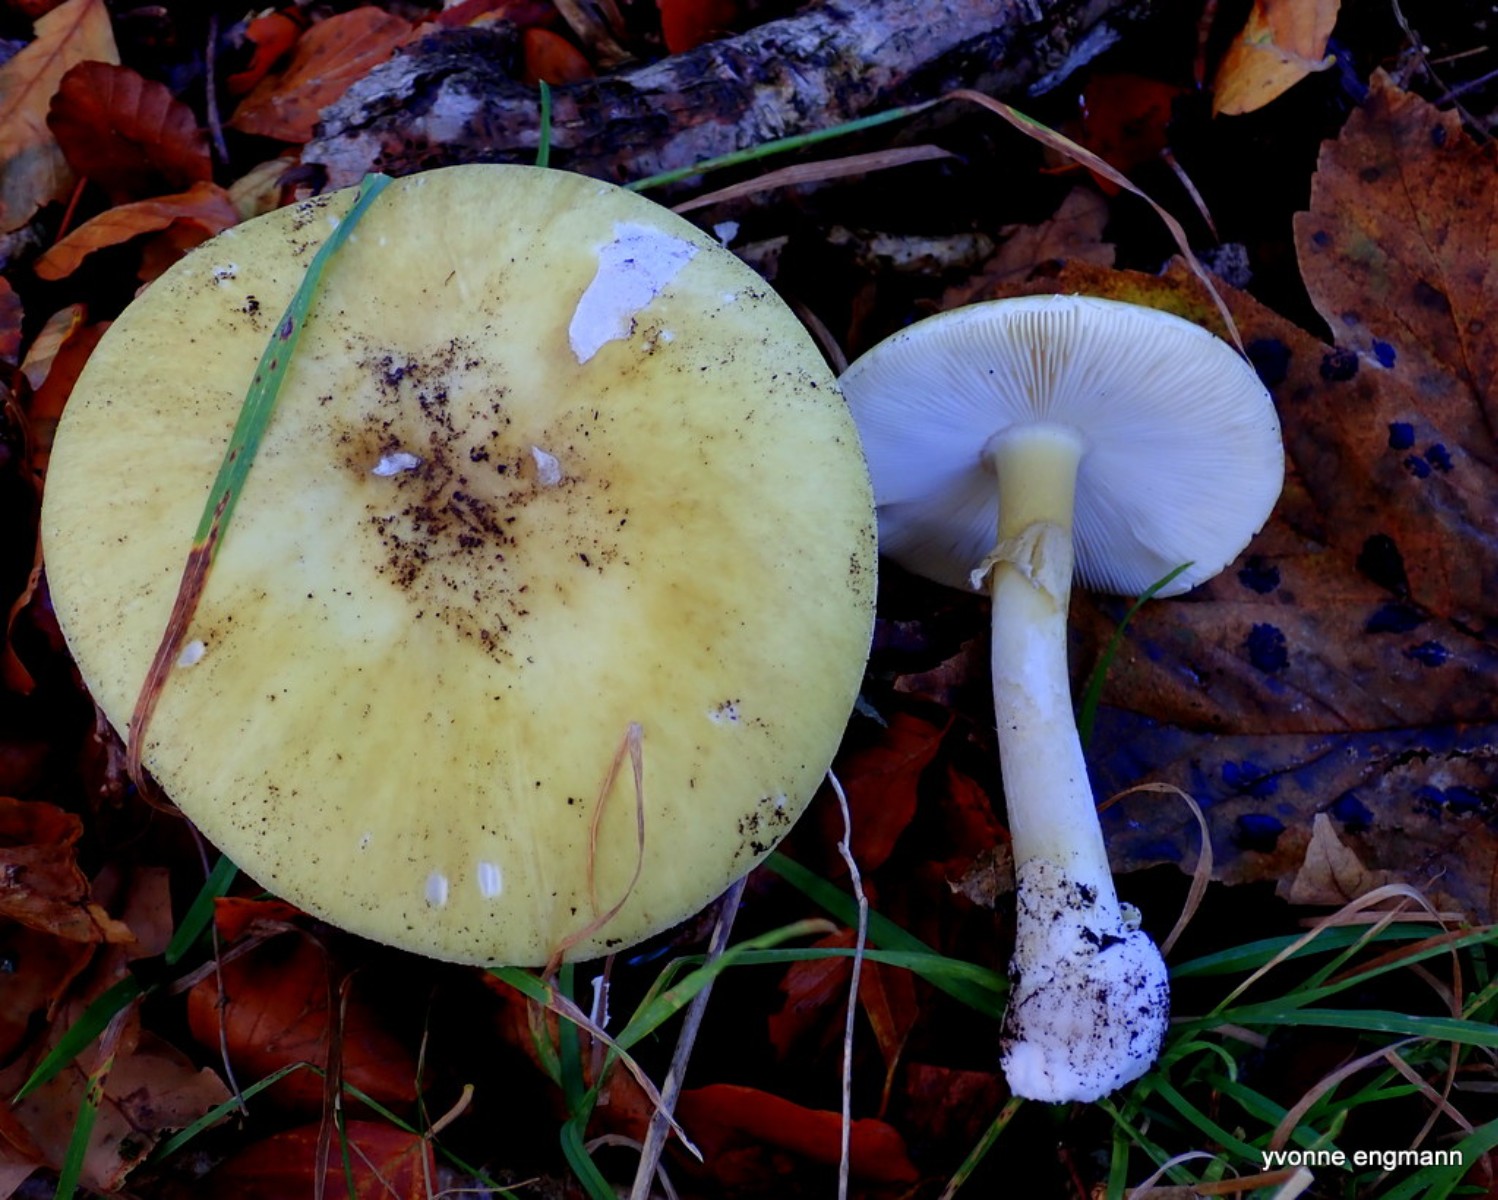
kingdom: Fungi
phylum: Basidiomycota
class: Agaricomycetes
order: Agaricales
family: Amanitaceae
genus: Amanita
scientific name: Amanita phalloides
